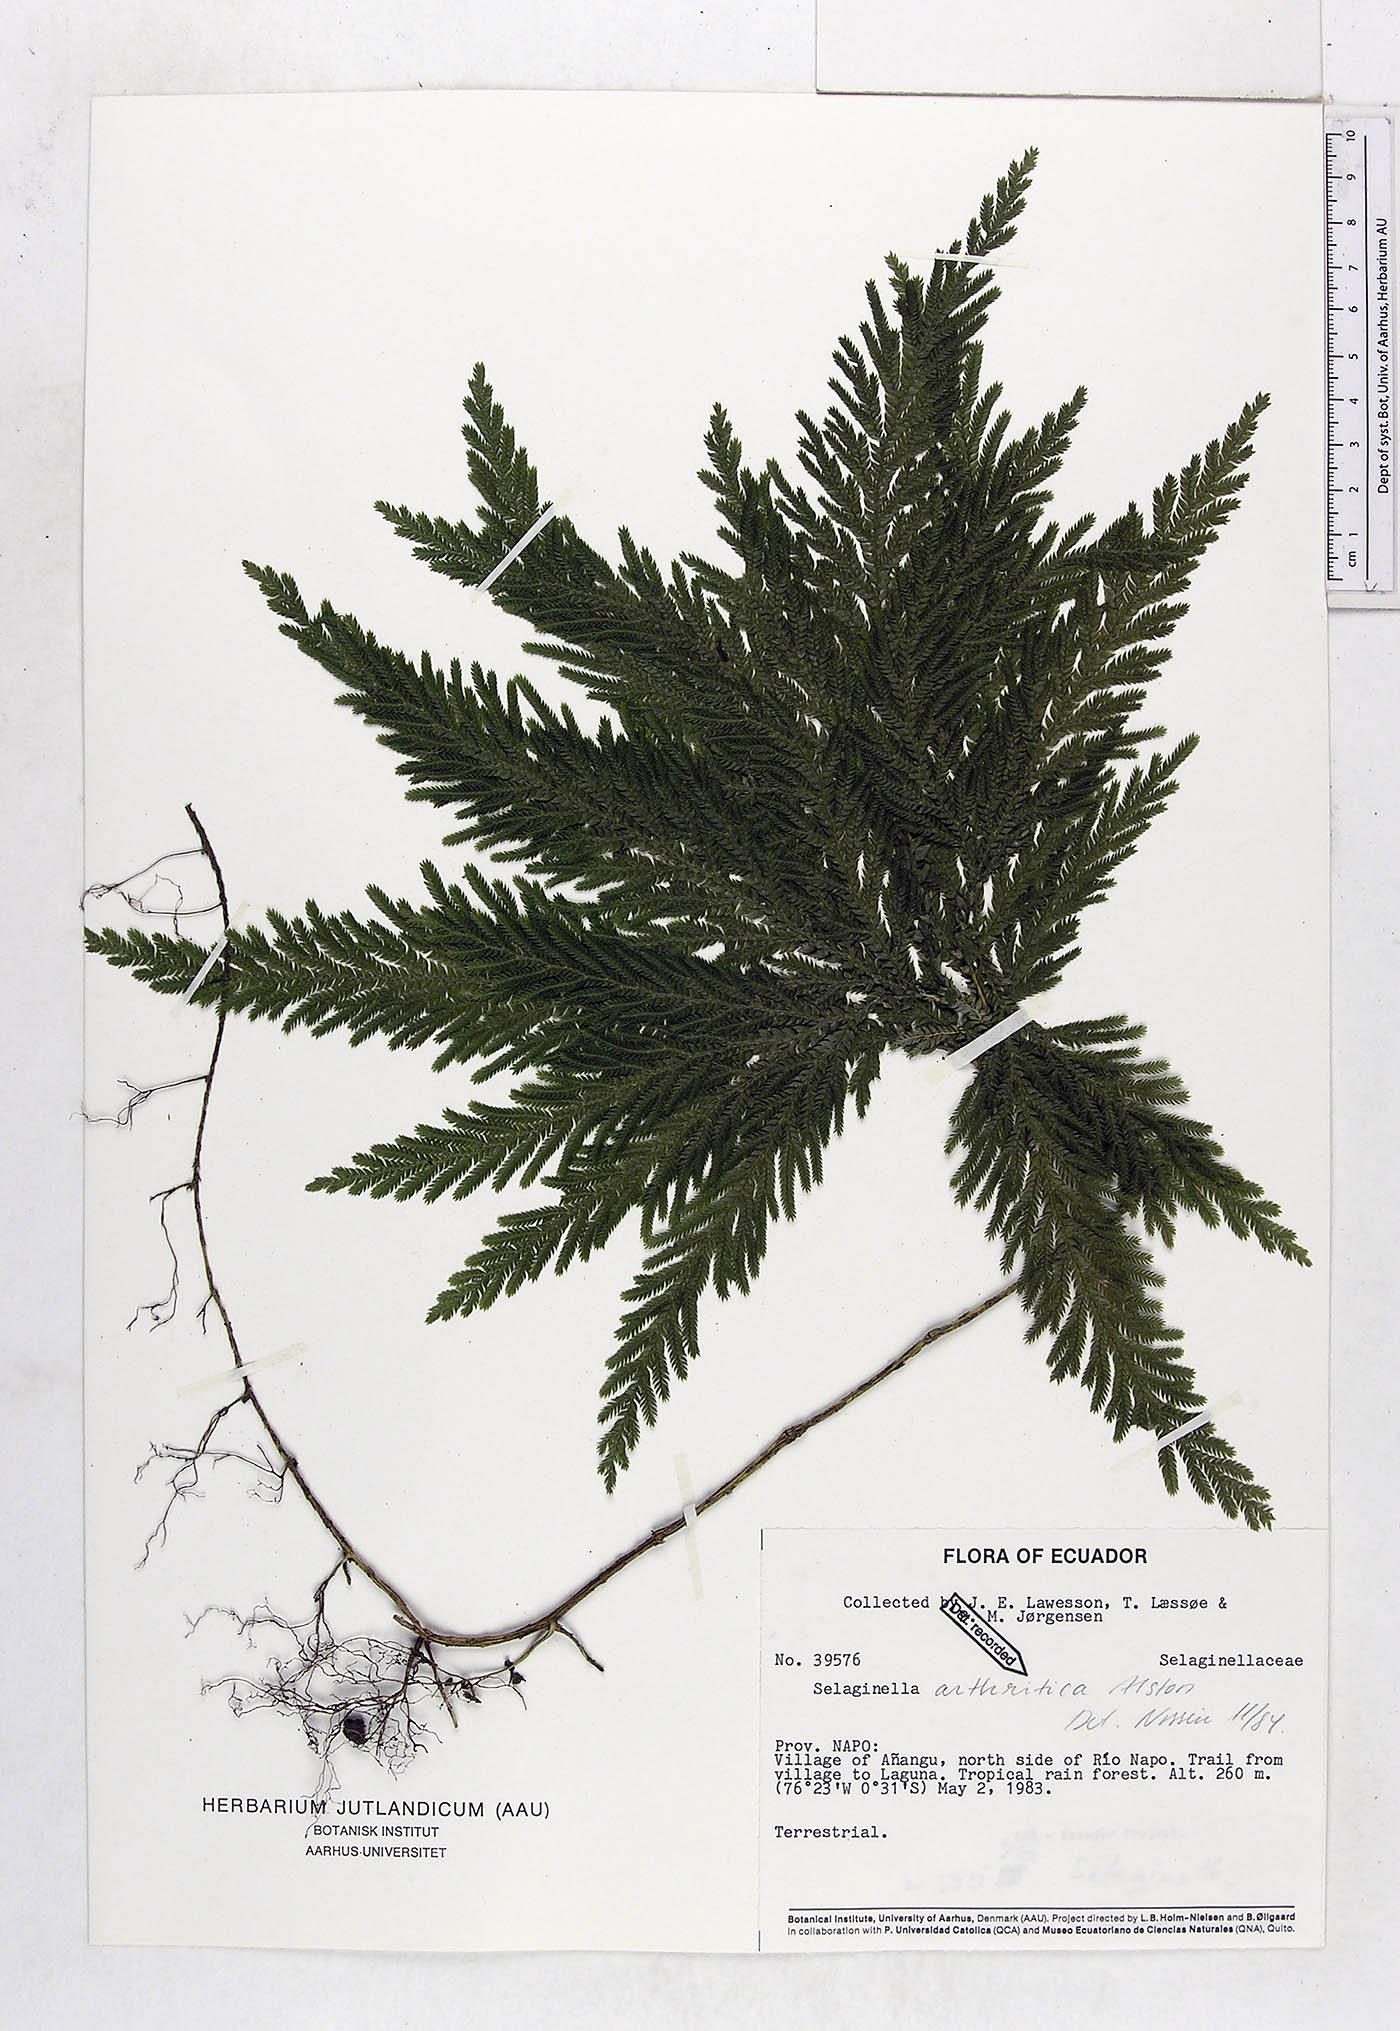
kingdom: Plantae
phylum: Tracheophyta
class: Lycopodiopsida
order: Selaginellales
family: Selaginellaceae
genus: Selaginella
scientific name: Selaginella arthritica
